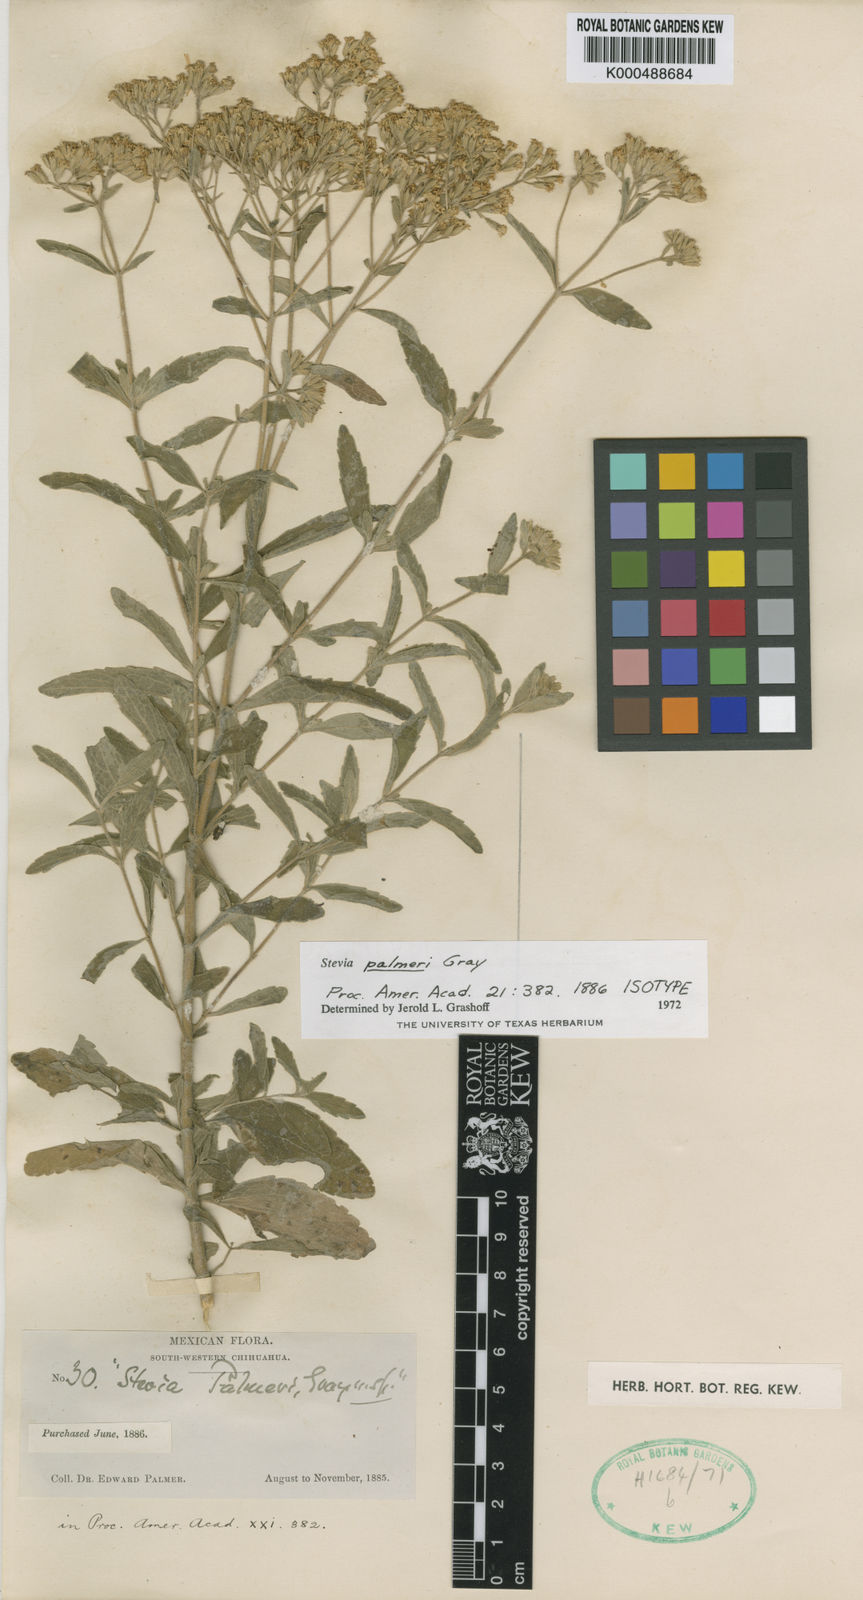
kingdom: Plantae
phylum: Tracheophyta
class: Magnoliopsida
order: Asterales
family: Asteraceae
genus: Stevia
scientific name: Stevia palmeri
